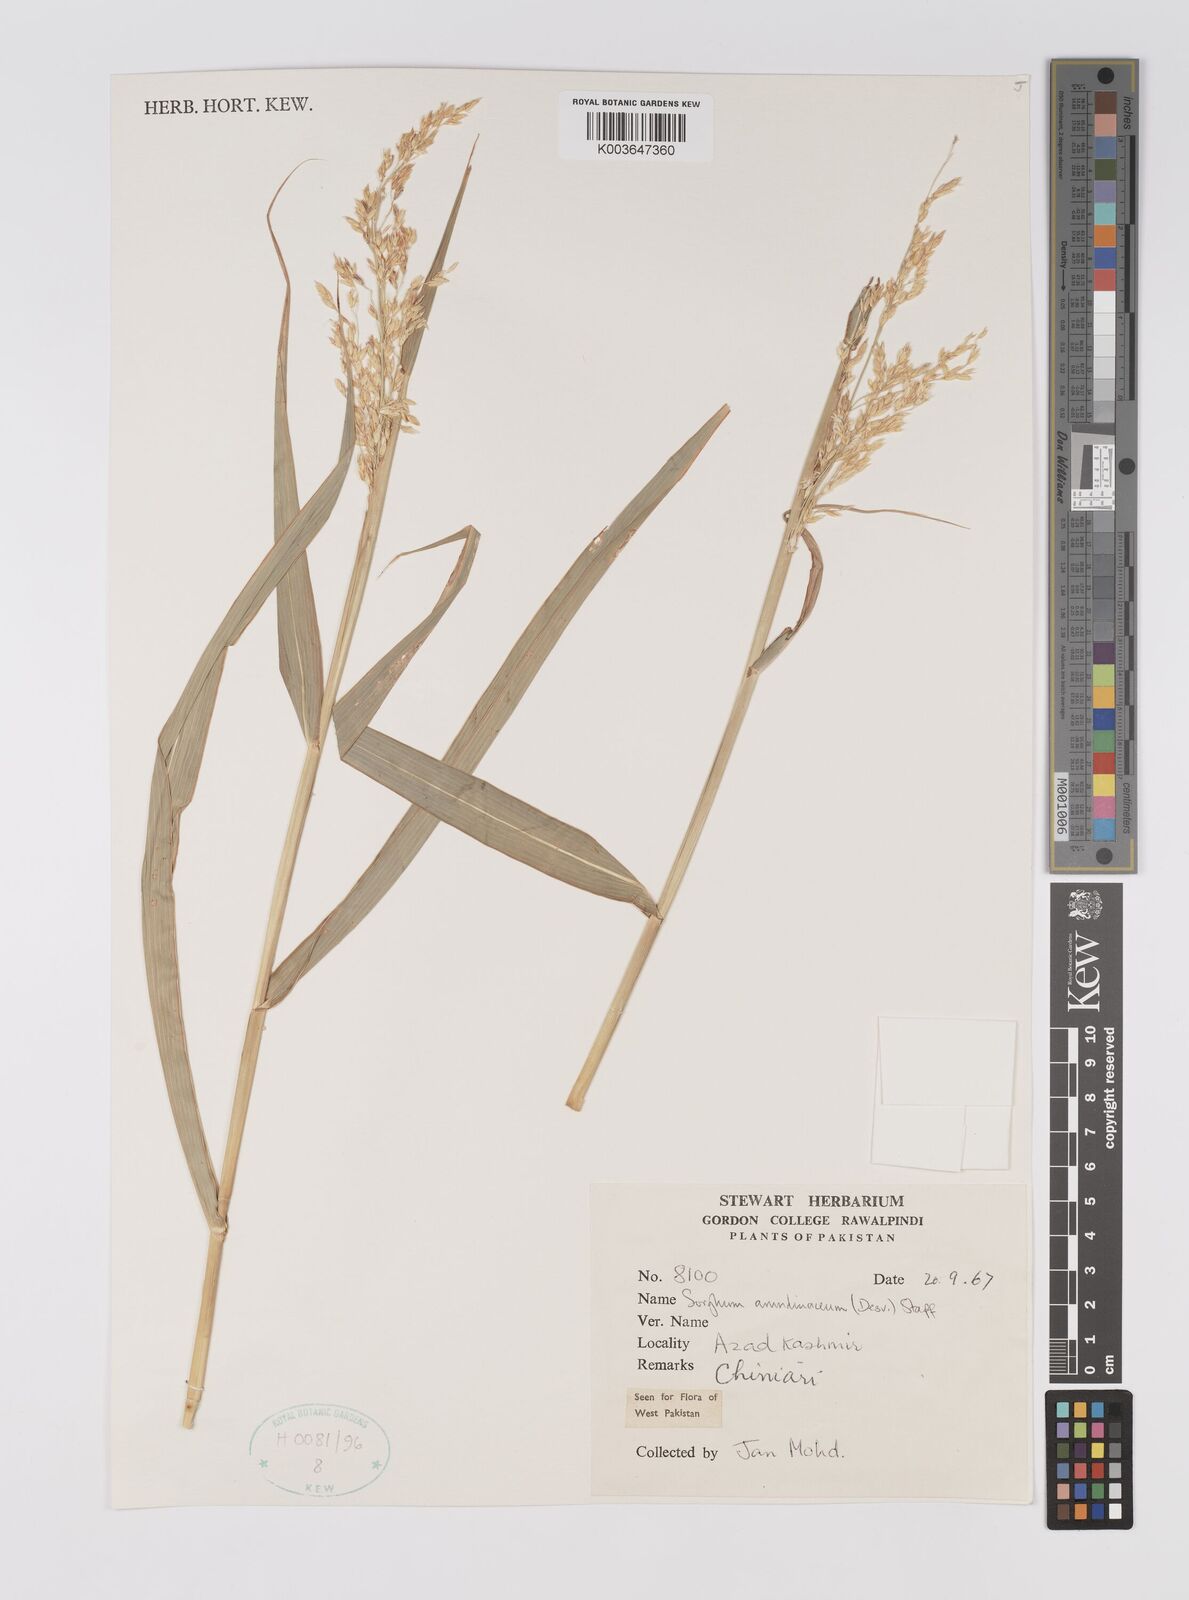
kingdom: Plantae
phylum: Tracheophyta
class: Liliopsida
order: Poales
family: Poaceae
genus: Sorghum
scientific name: Sorghum arundinaceum
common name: Sorghum
